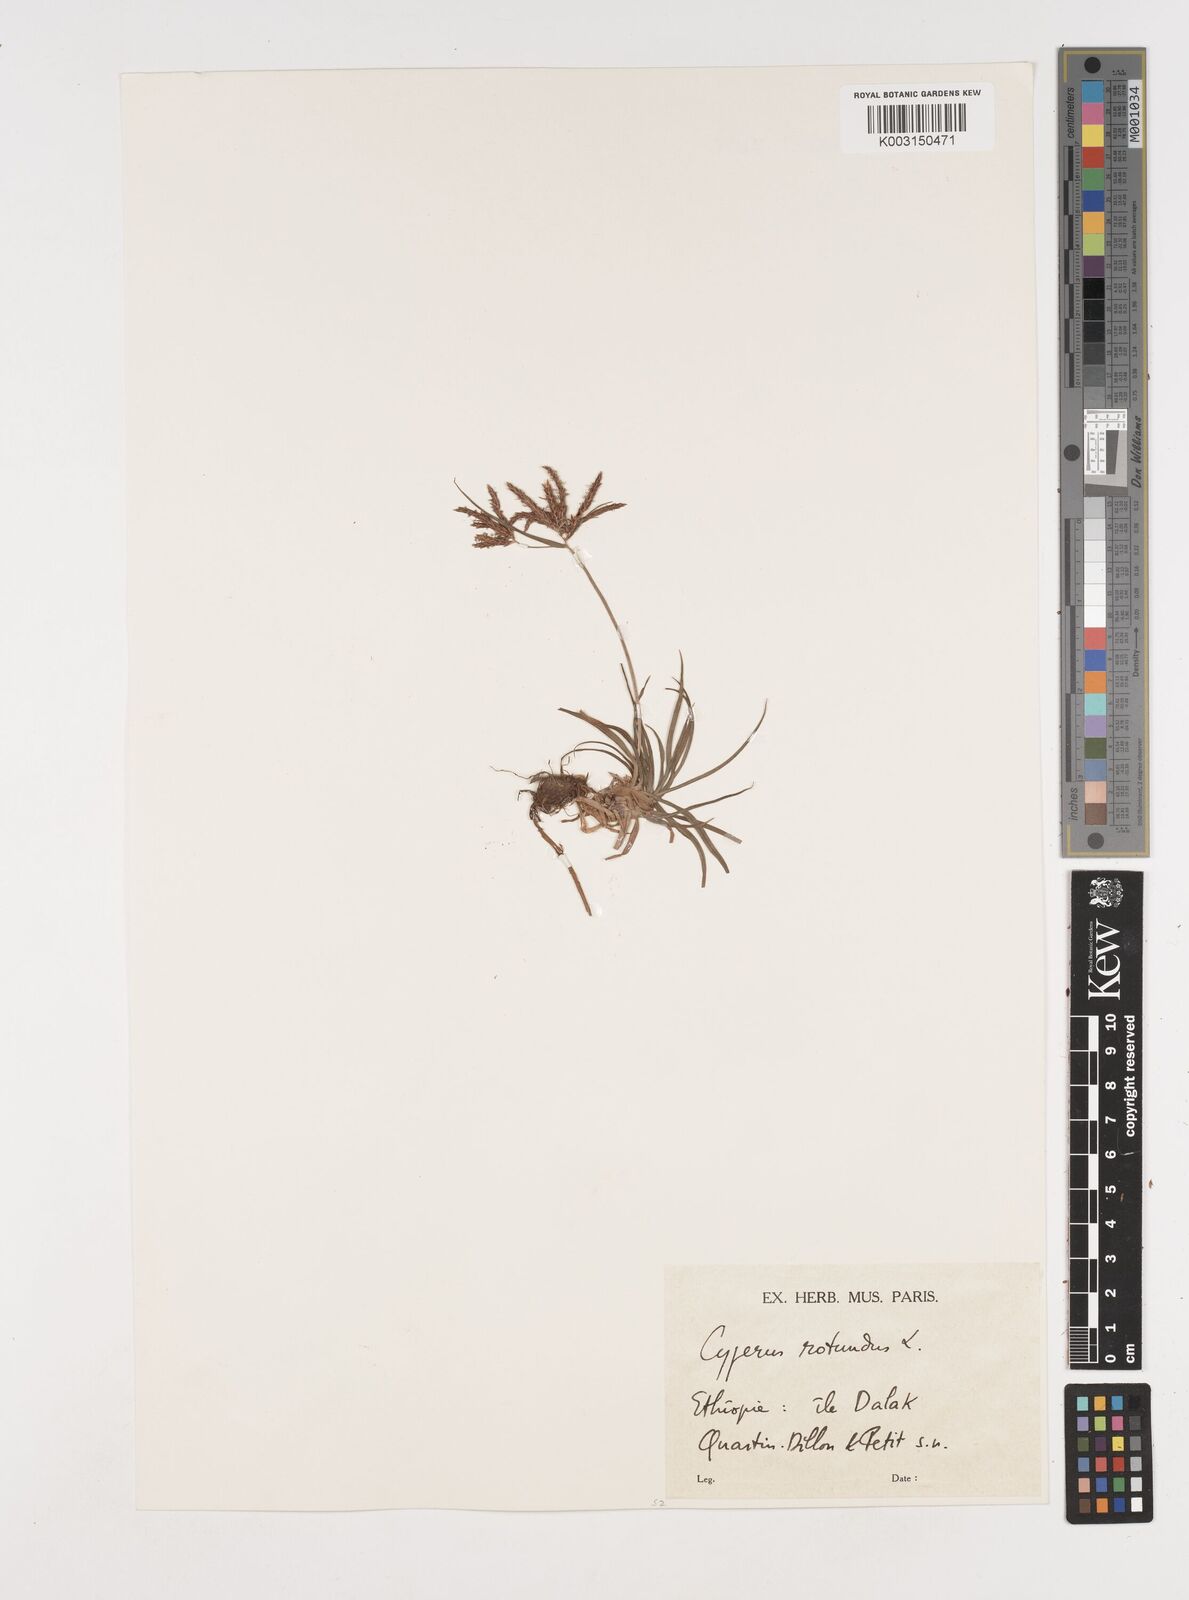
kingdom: Plantae
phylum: Tracheophyta
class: Liliopsida
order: Poales
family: Cyperaceae
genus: Cyperus
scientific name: Cyperus rotundus
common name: Nutgrass
